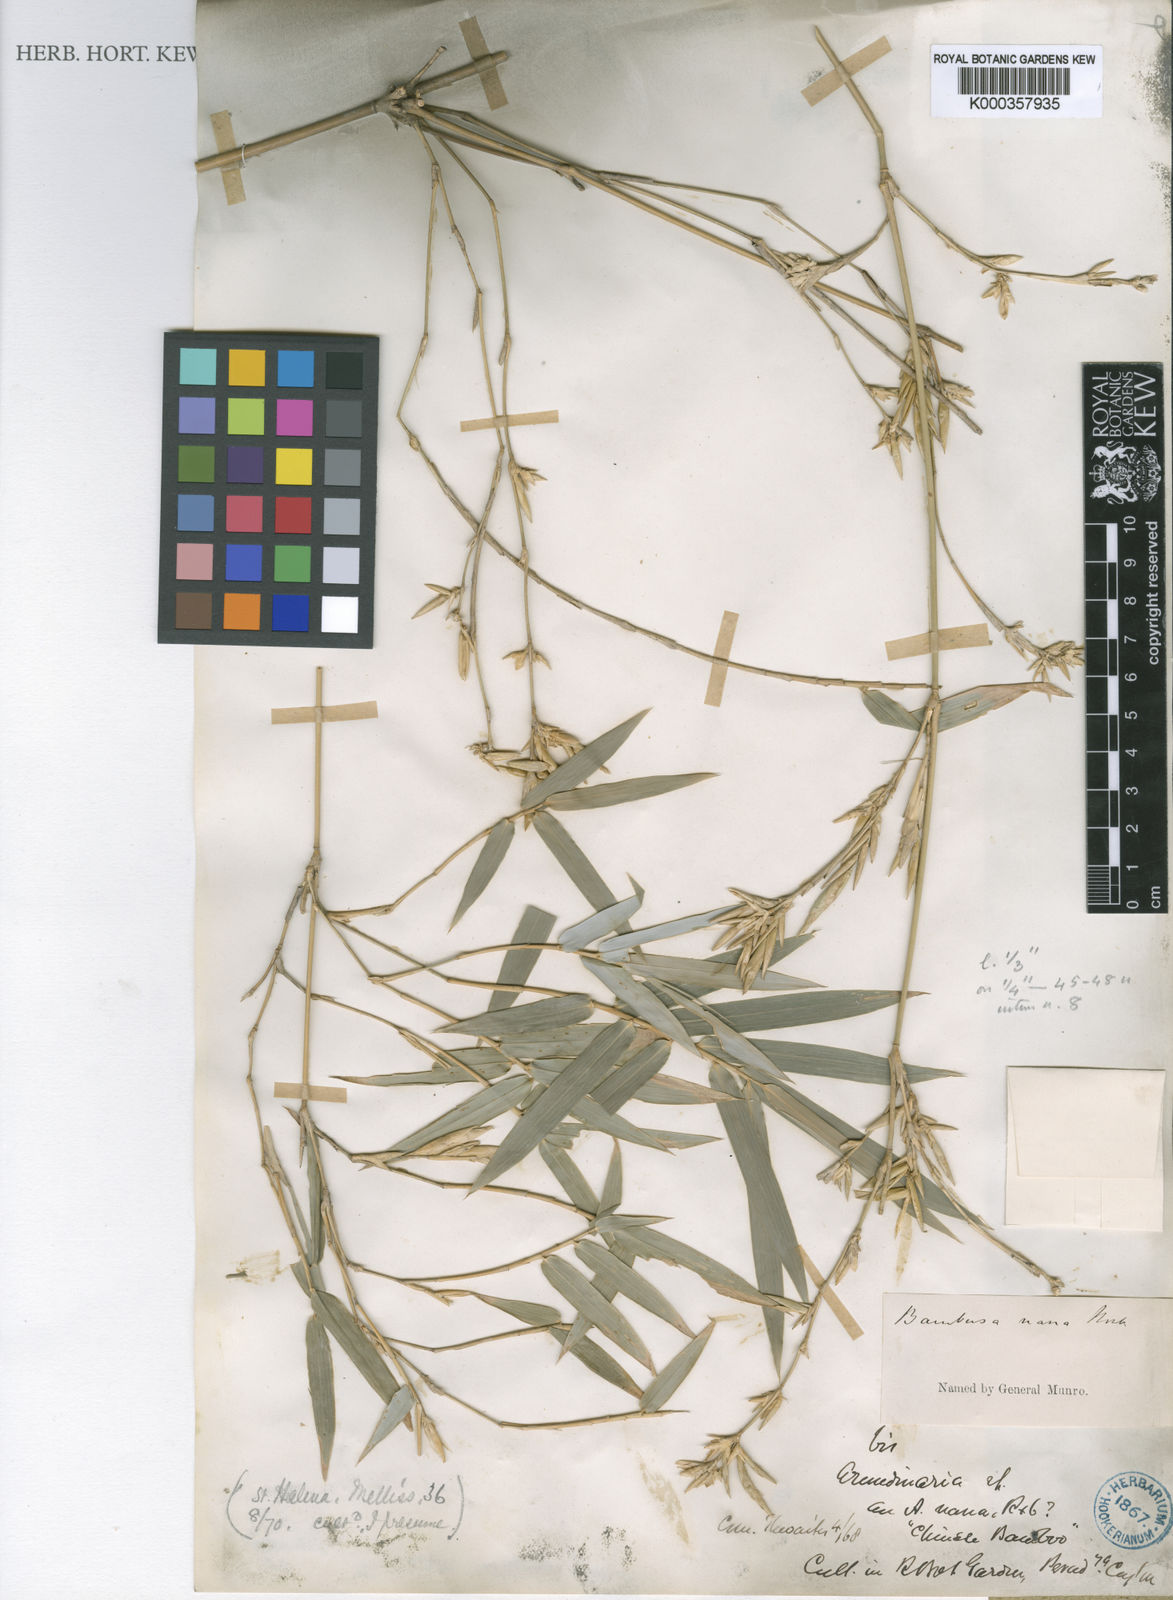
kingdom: Plantae
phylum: Tracheophyta
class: Liliopsida
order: Poales
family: Poaceae
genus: Bambusa
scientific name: Bambusa multiplex
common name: Hedge bamboo
